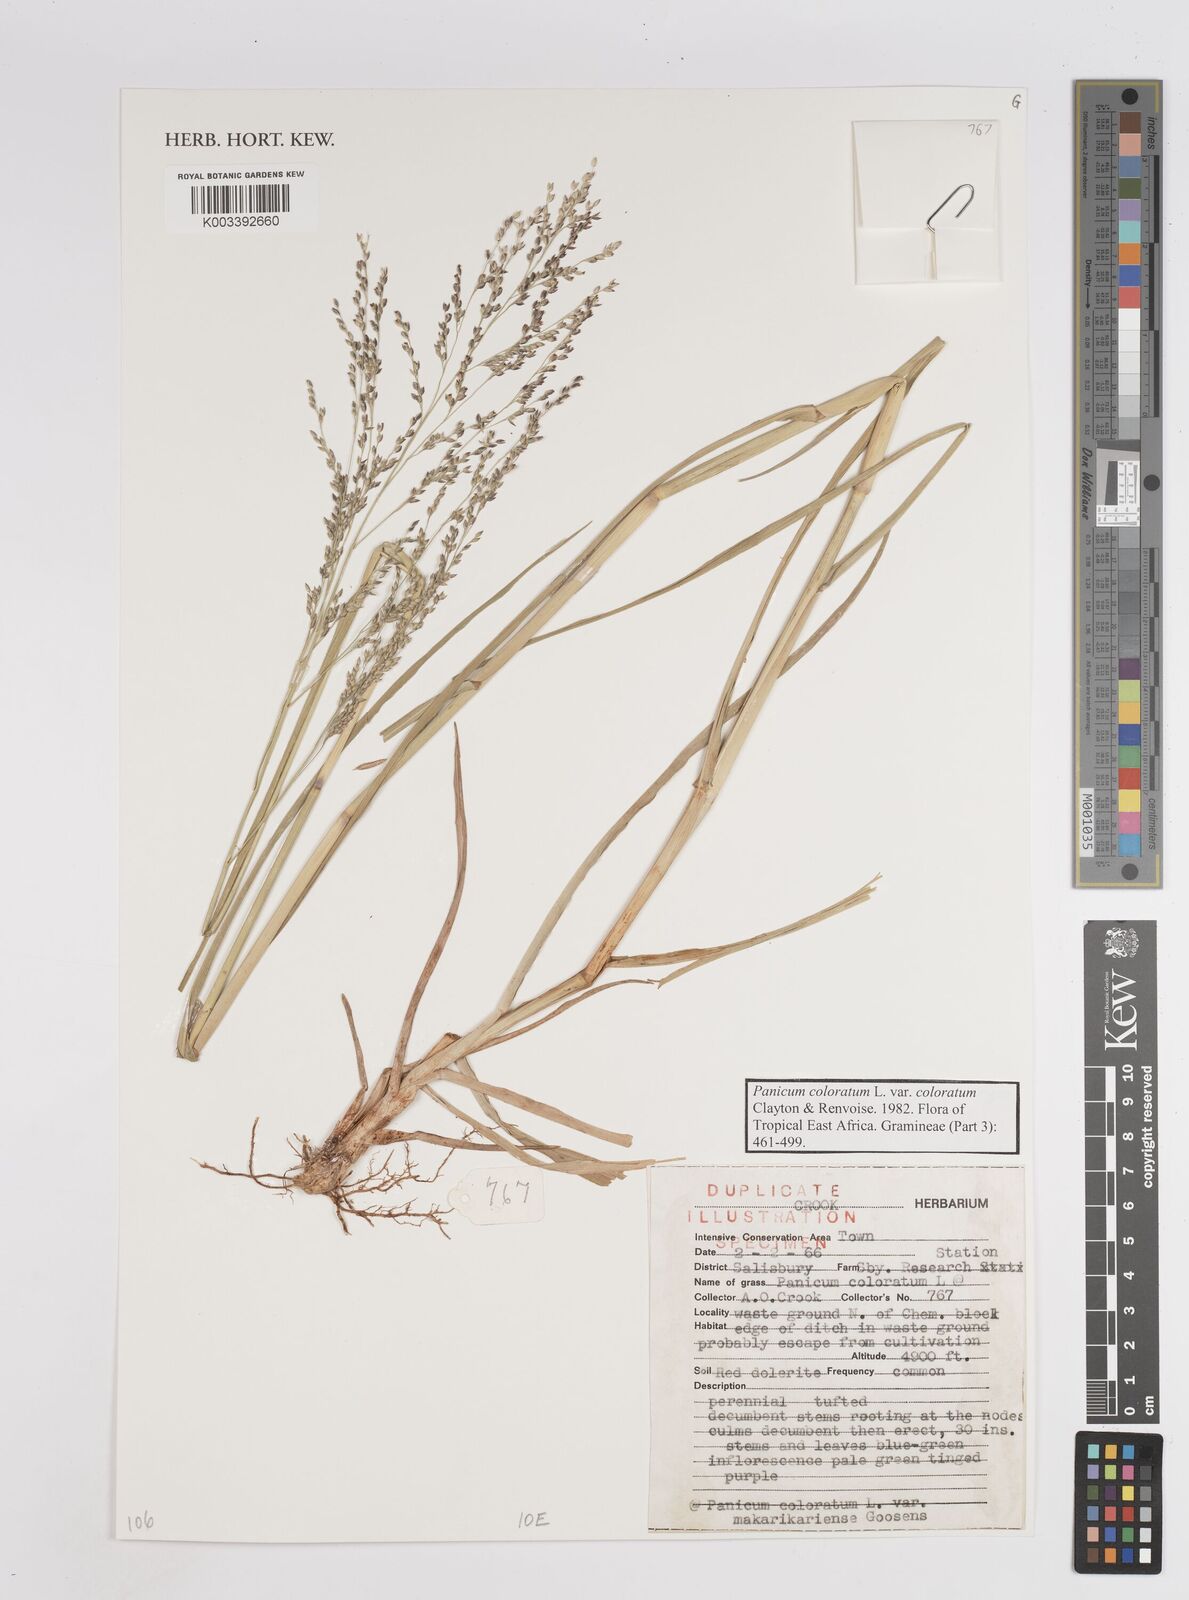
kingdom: Plantae
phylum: Tracheophyta
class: Liliopsida
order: Poales
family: Poaceae
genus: Panicum
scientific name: Panicum coloratum
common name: Kleingrass
